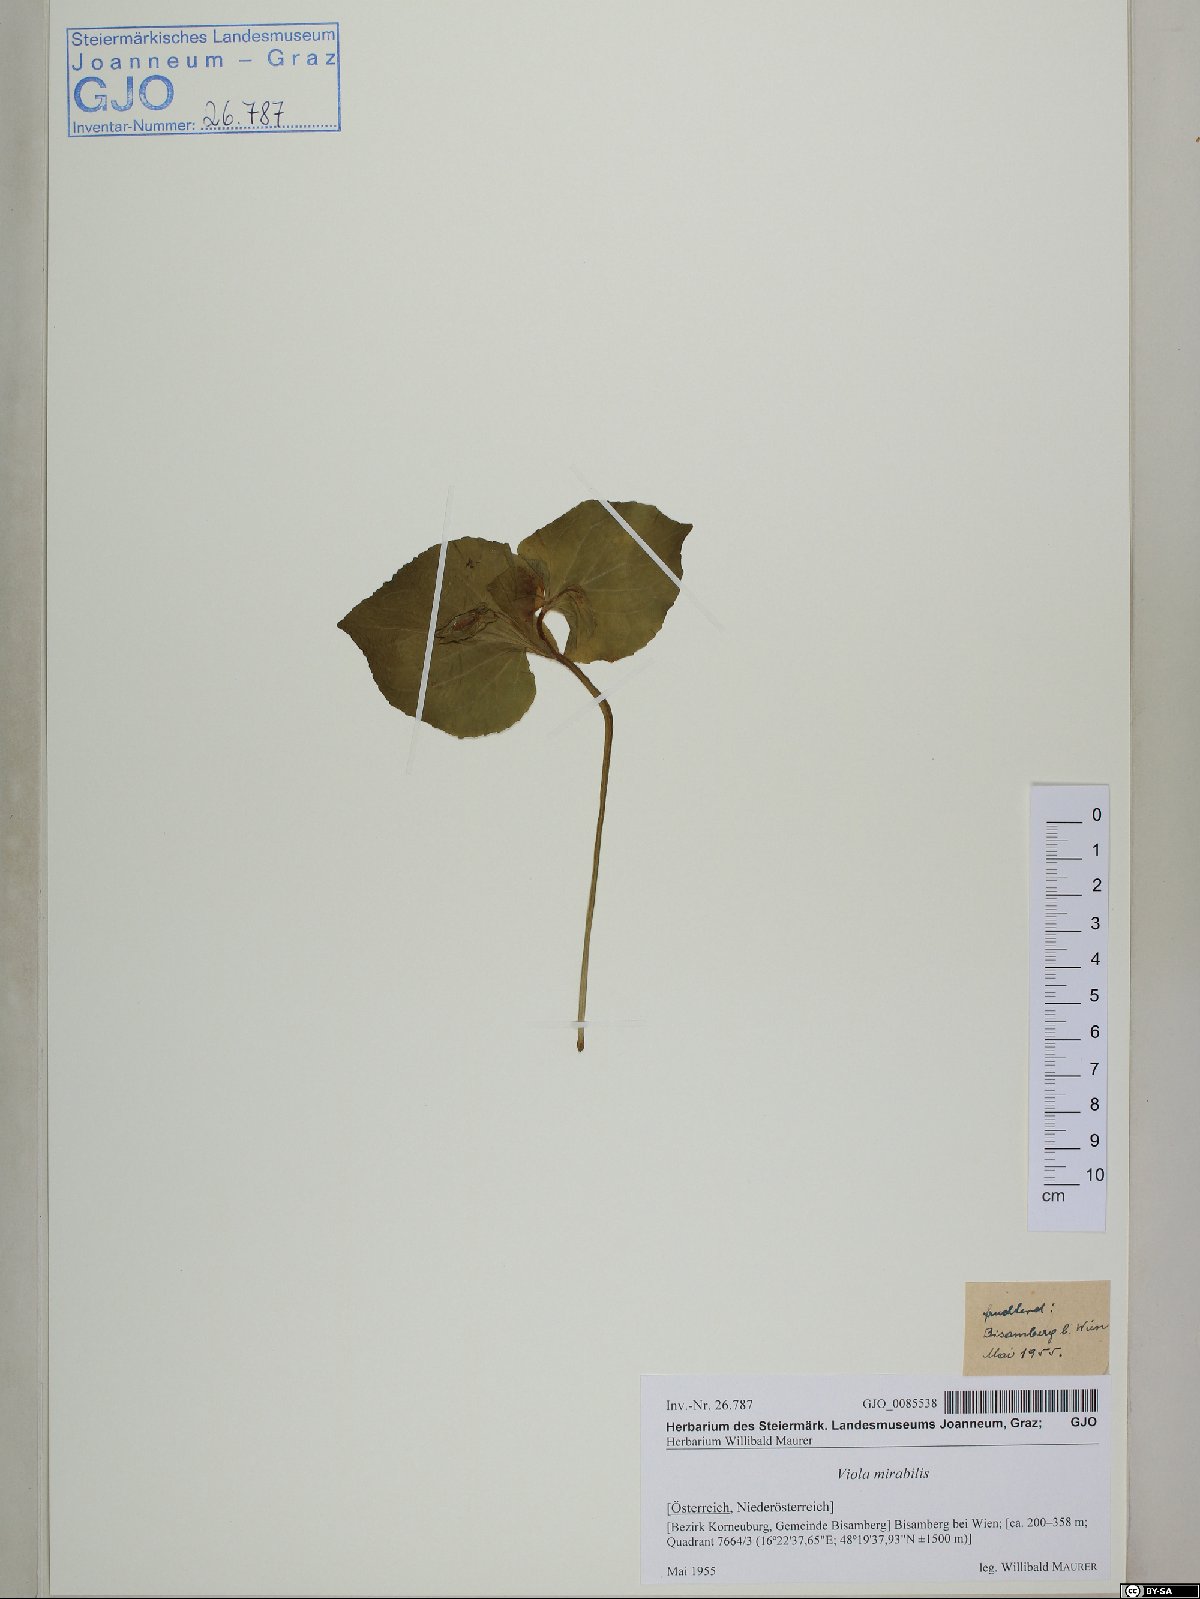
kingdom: Plantae
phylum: Tracheophyta
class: Magnoliopsida
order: Malpighiales
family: Violaceae
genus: Viola
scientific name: Viola mirabilis
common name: Wonder violet
